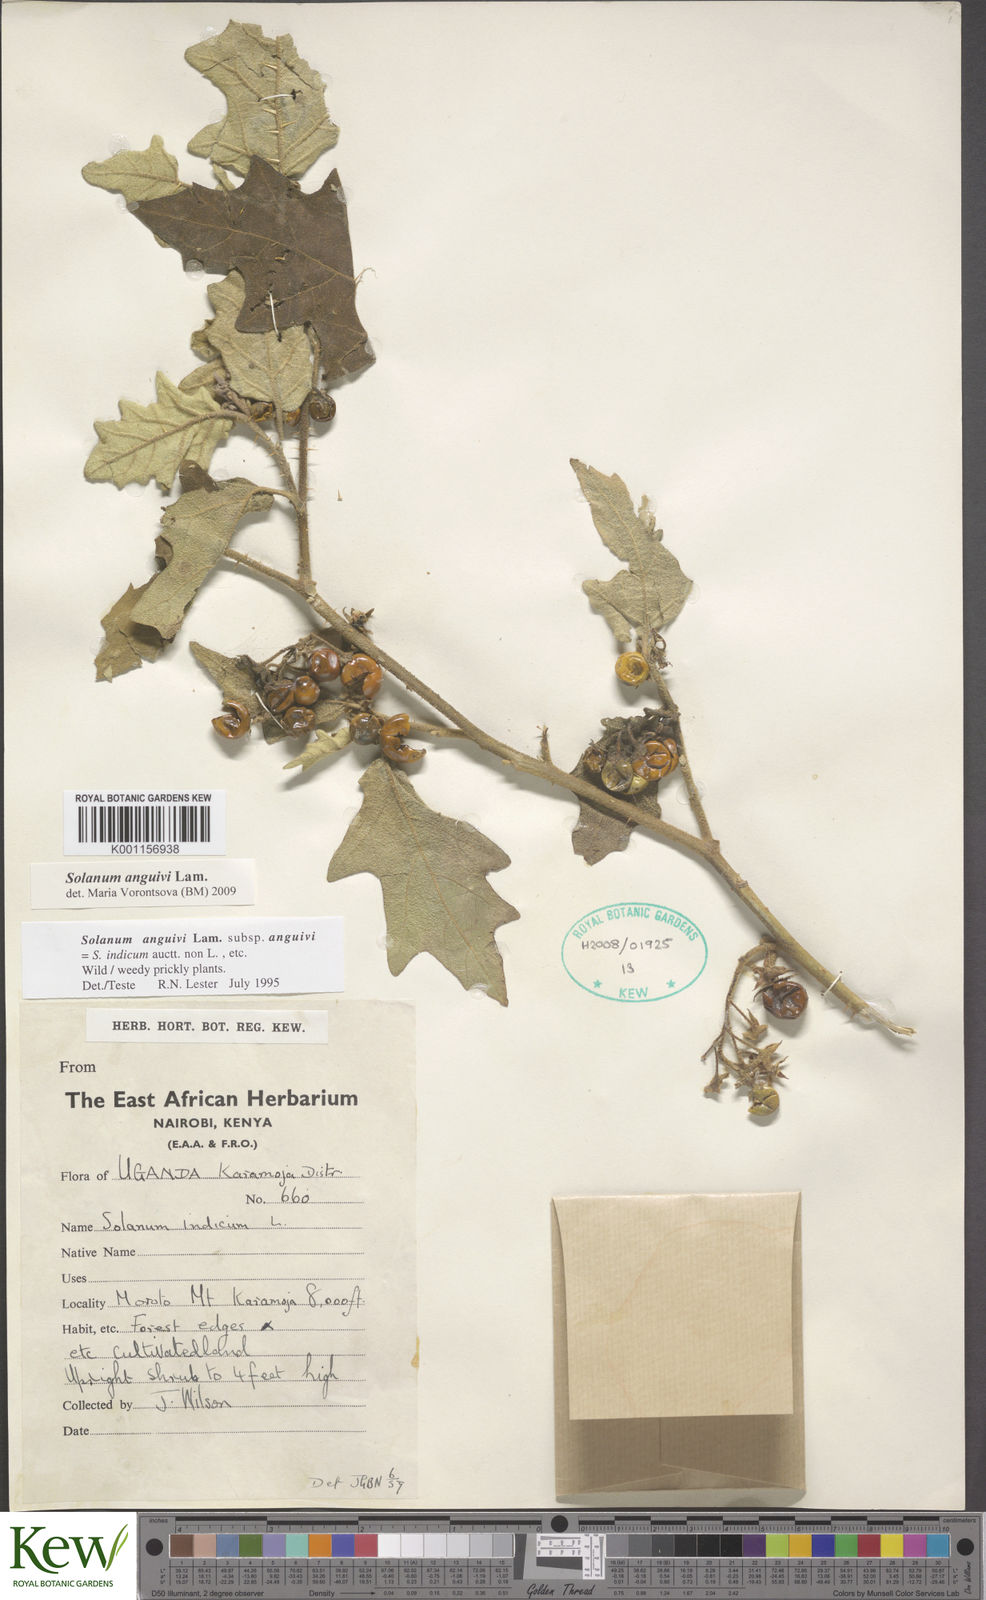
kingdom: Plantae
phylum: Tracheophyta
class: Magnoliopsida
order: Solanales
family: Solanaceae
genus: Solanum
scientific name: Solanum anguivi
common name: Forest bitterberry
